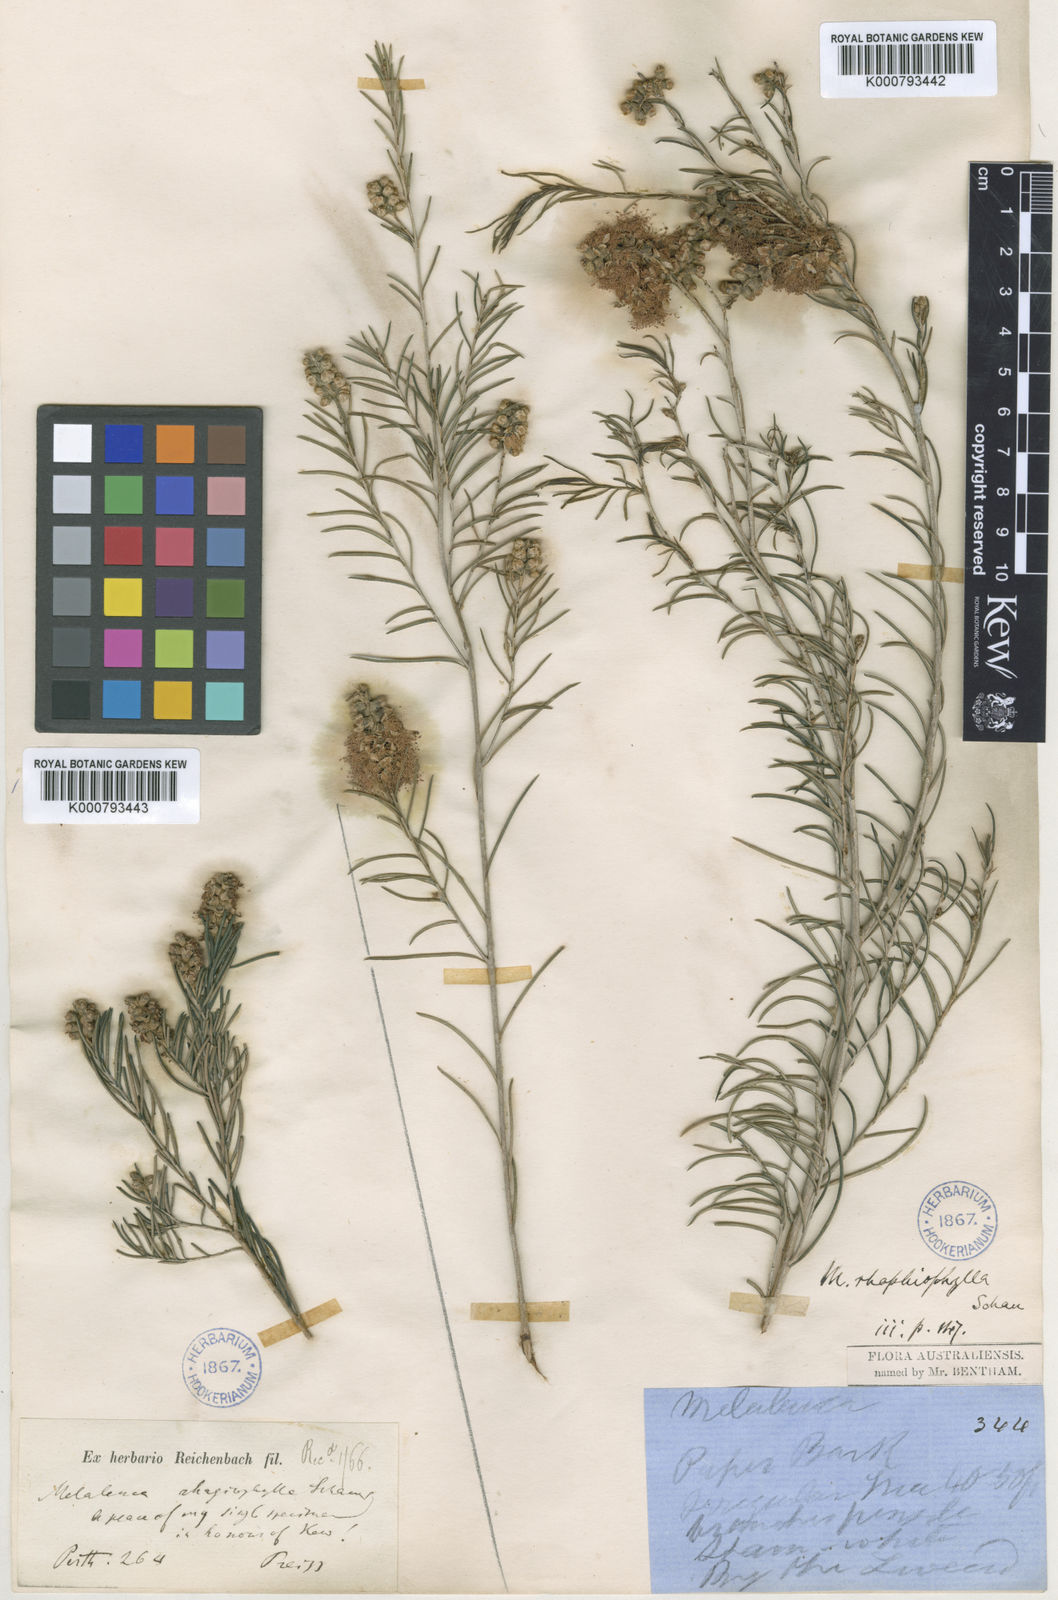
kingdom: Plantae
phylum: Tracheophyta
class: Magnoliopsida
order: Myrtales
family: Myrtaceae
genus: Melaleuca
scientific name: Melaleuca rhaphiophylla
